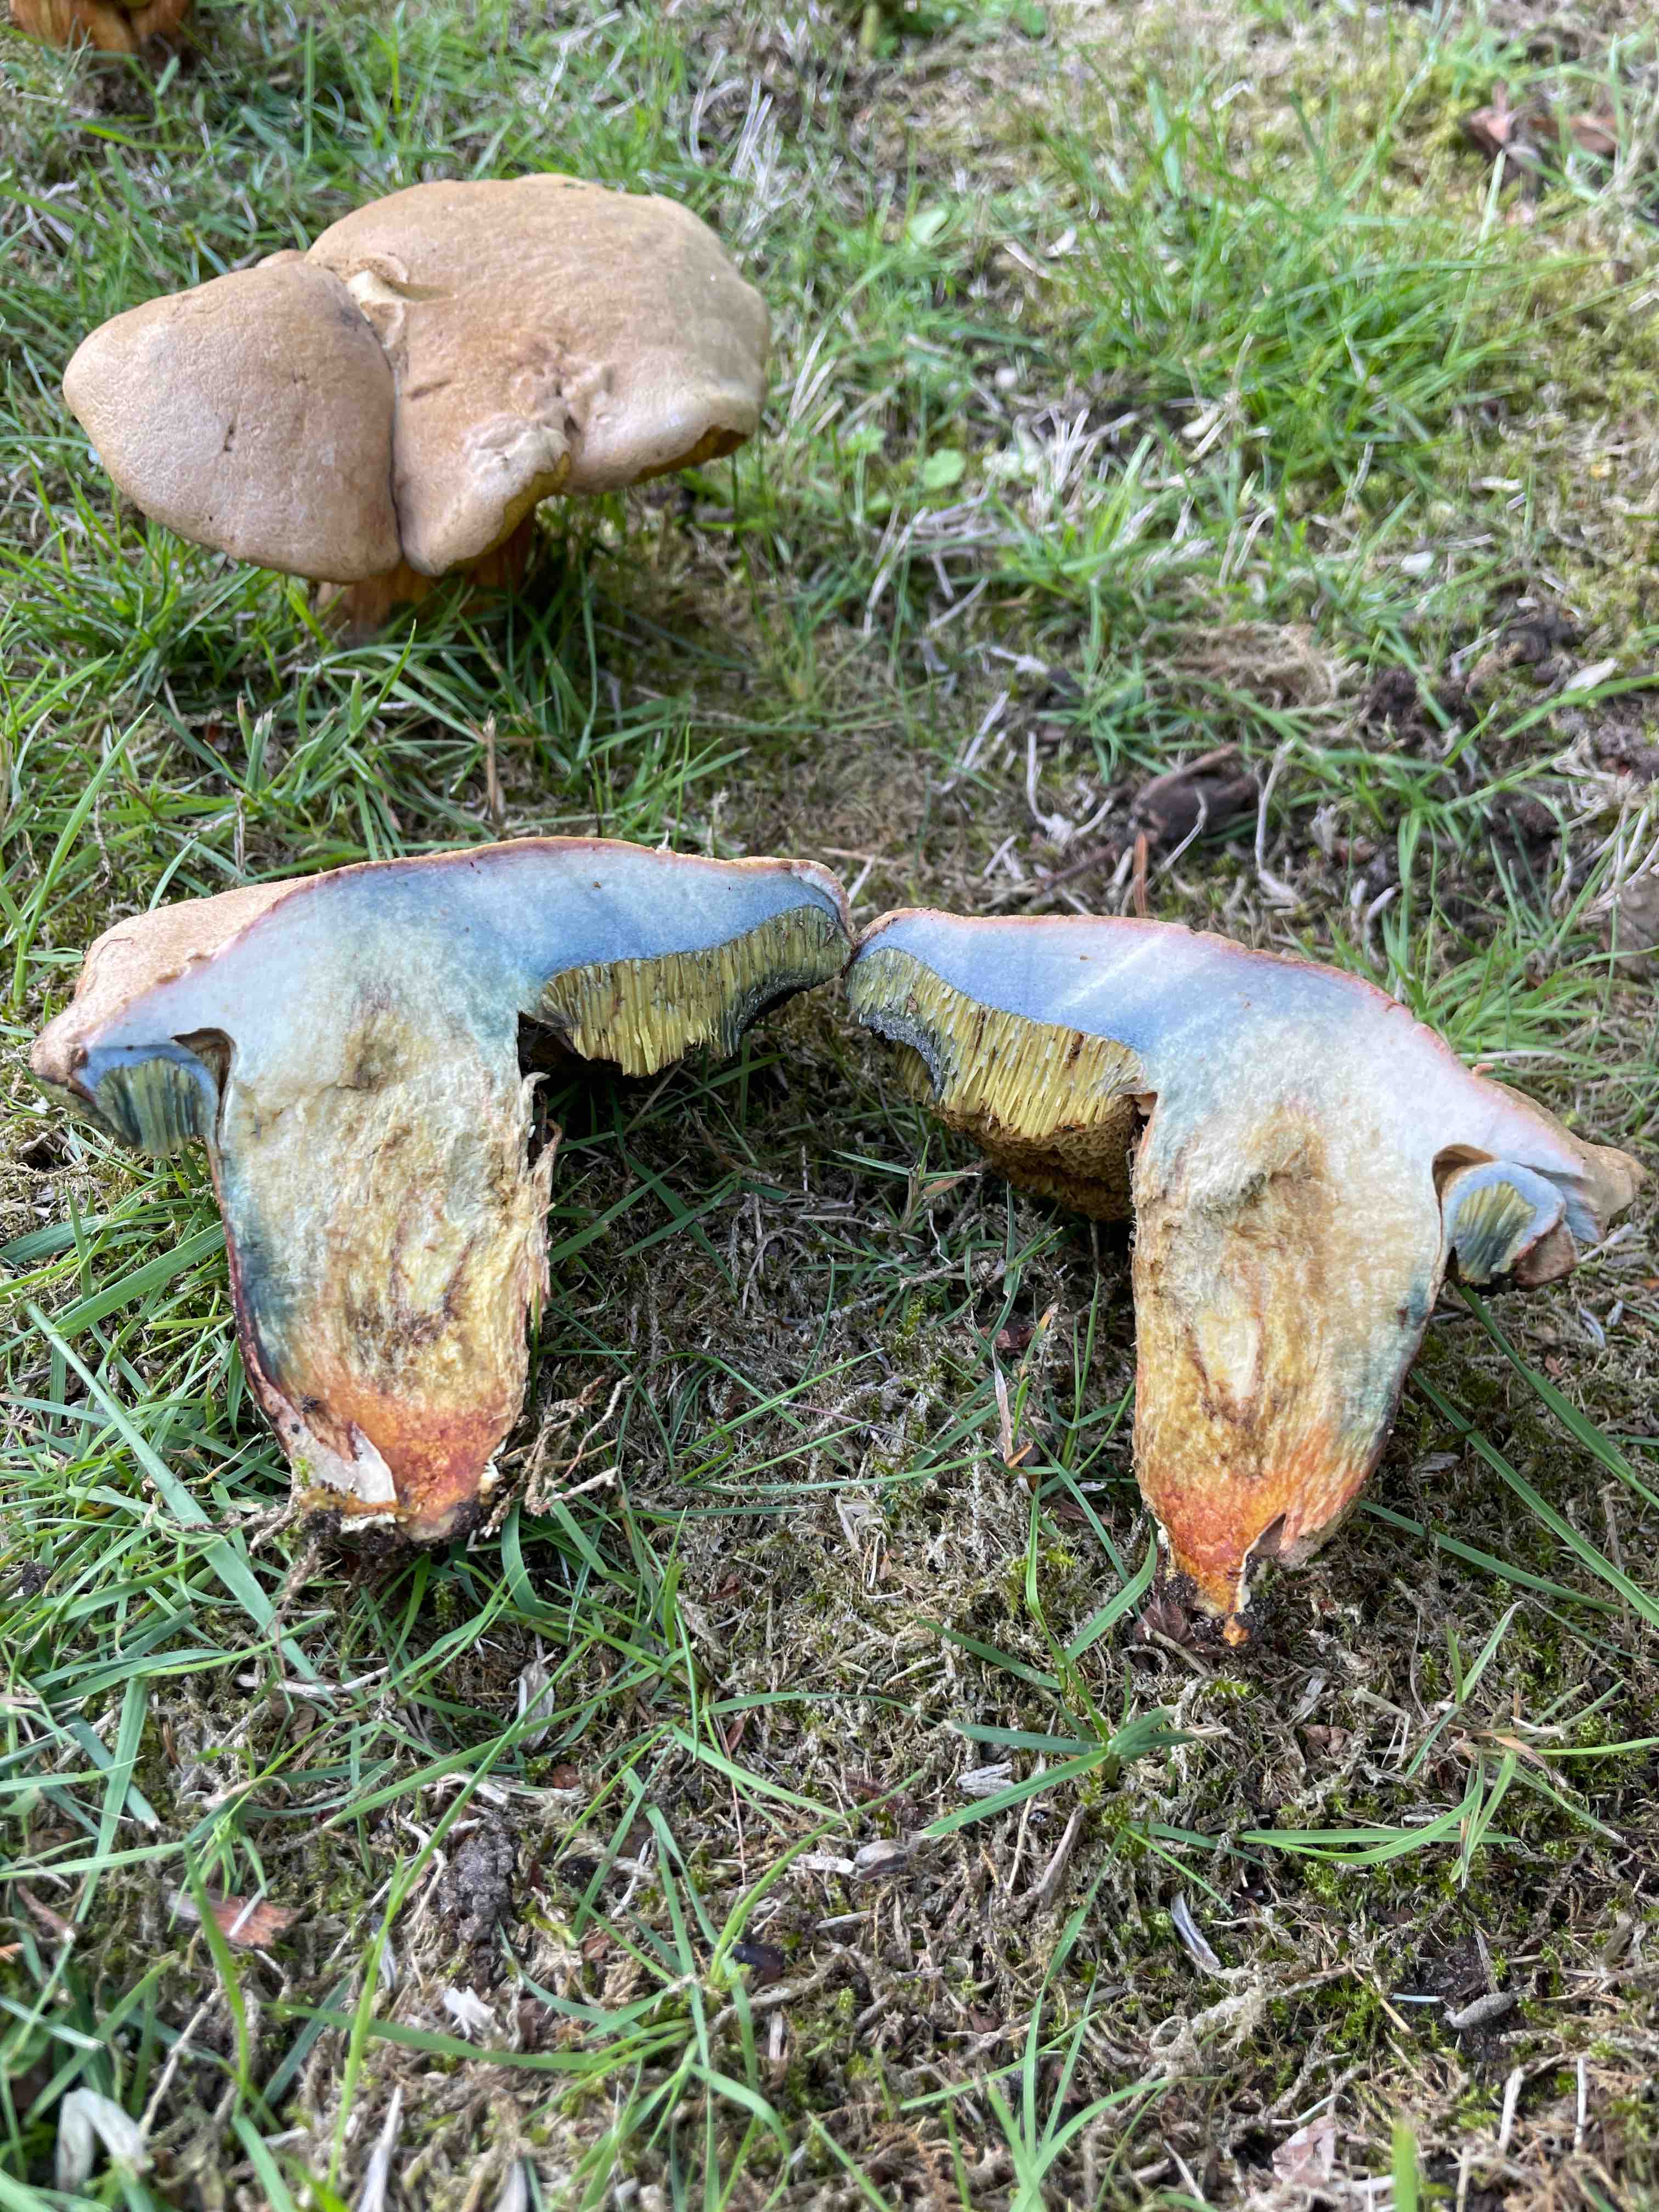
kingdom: Fungi
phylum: Basidiomycota
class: Agaricomycetes
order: Boletales
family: Boletaceae
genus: Hortiboletus
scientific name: Hortiboletus bubalinus
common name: aurora-rørhat
